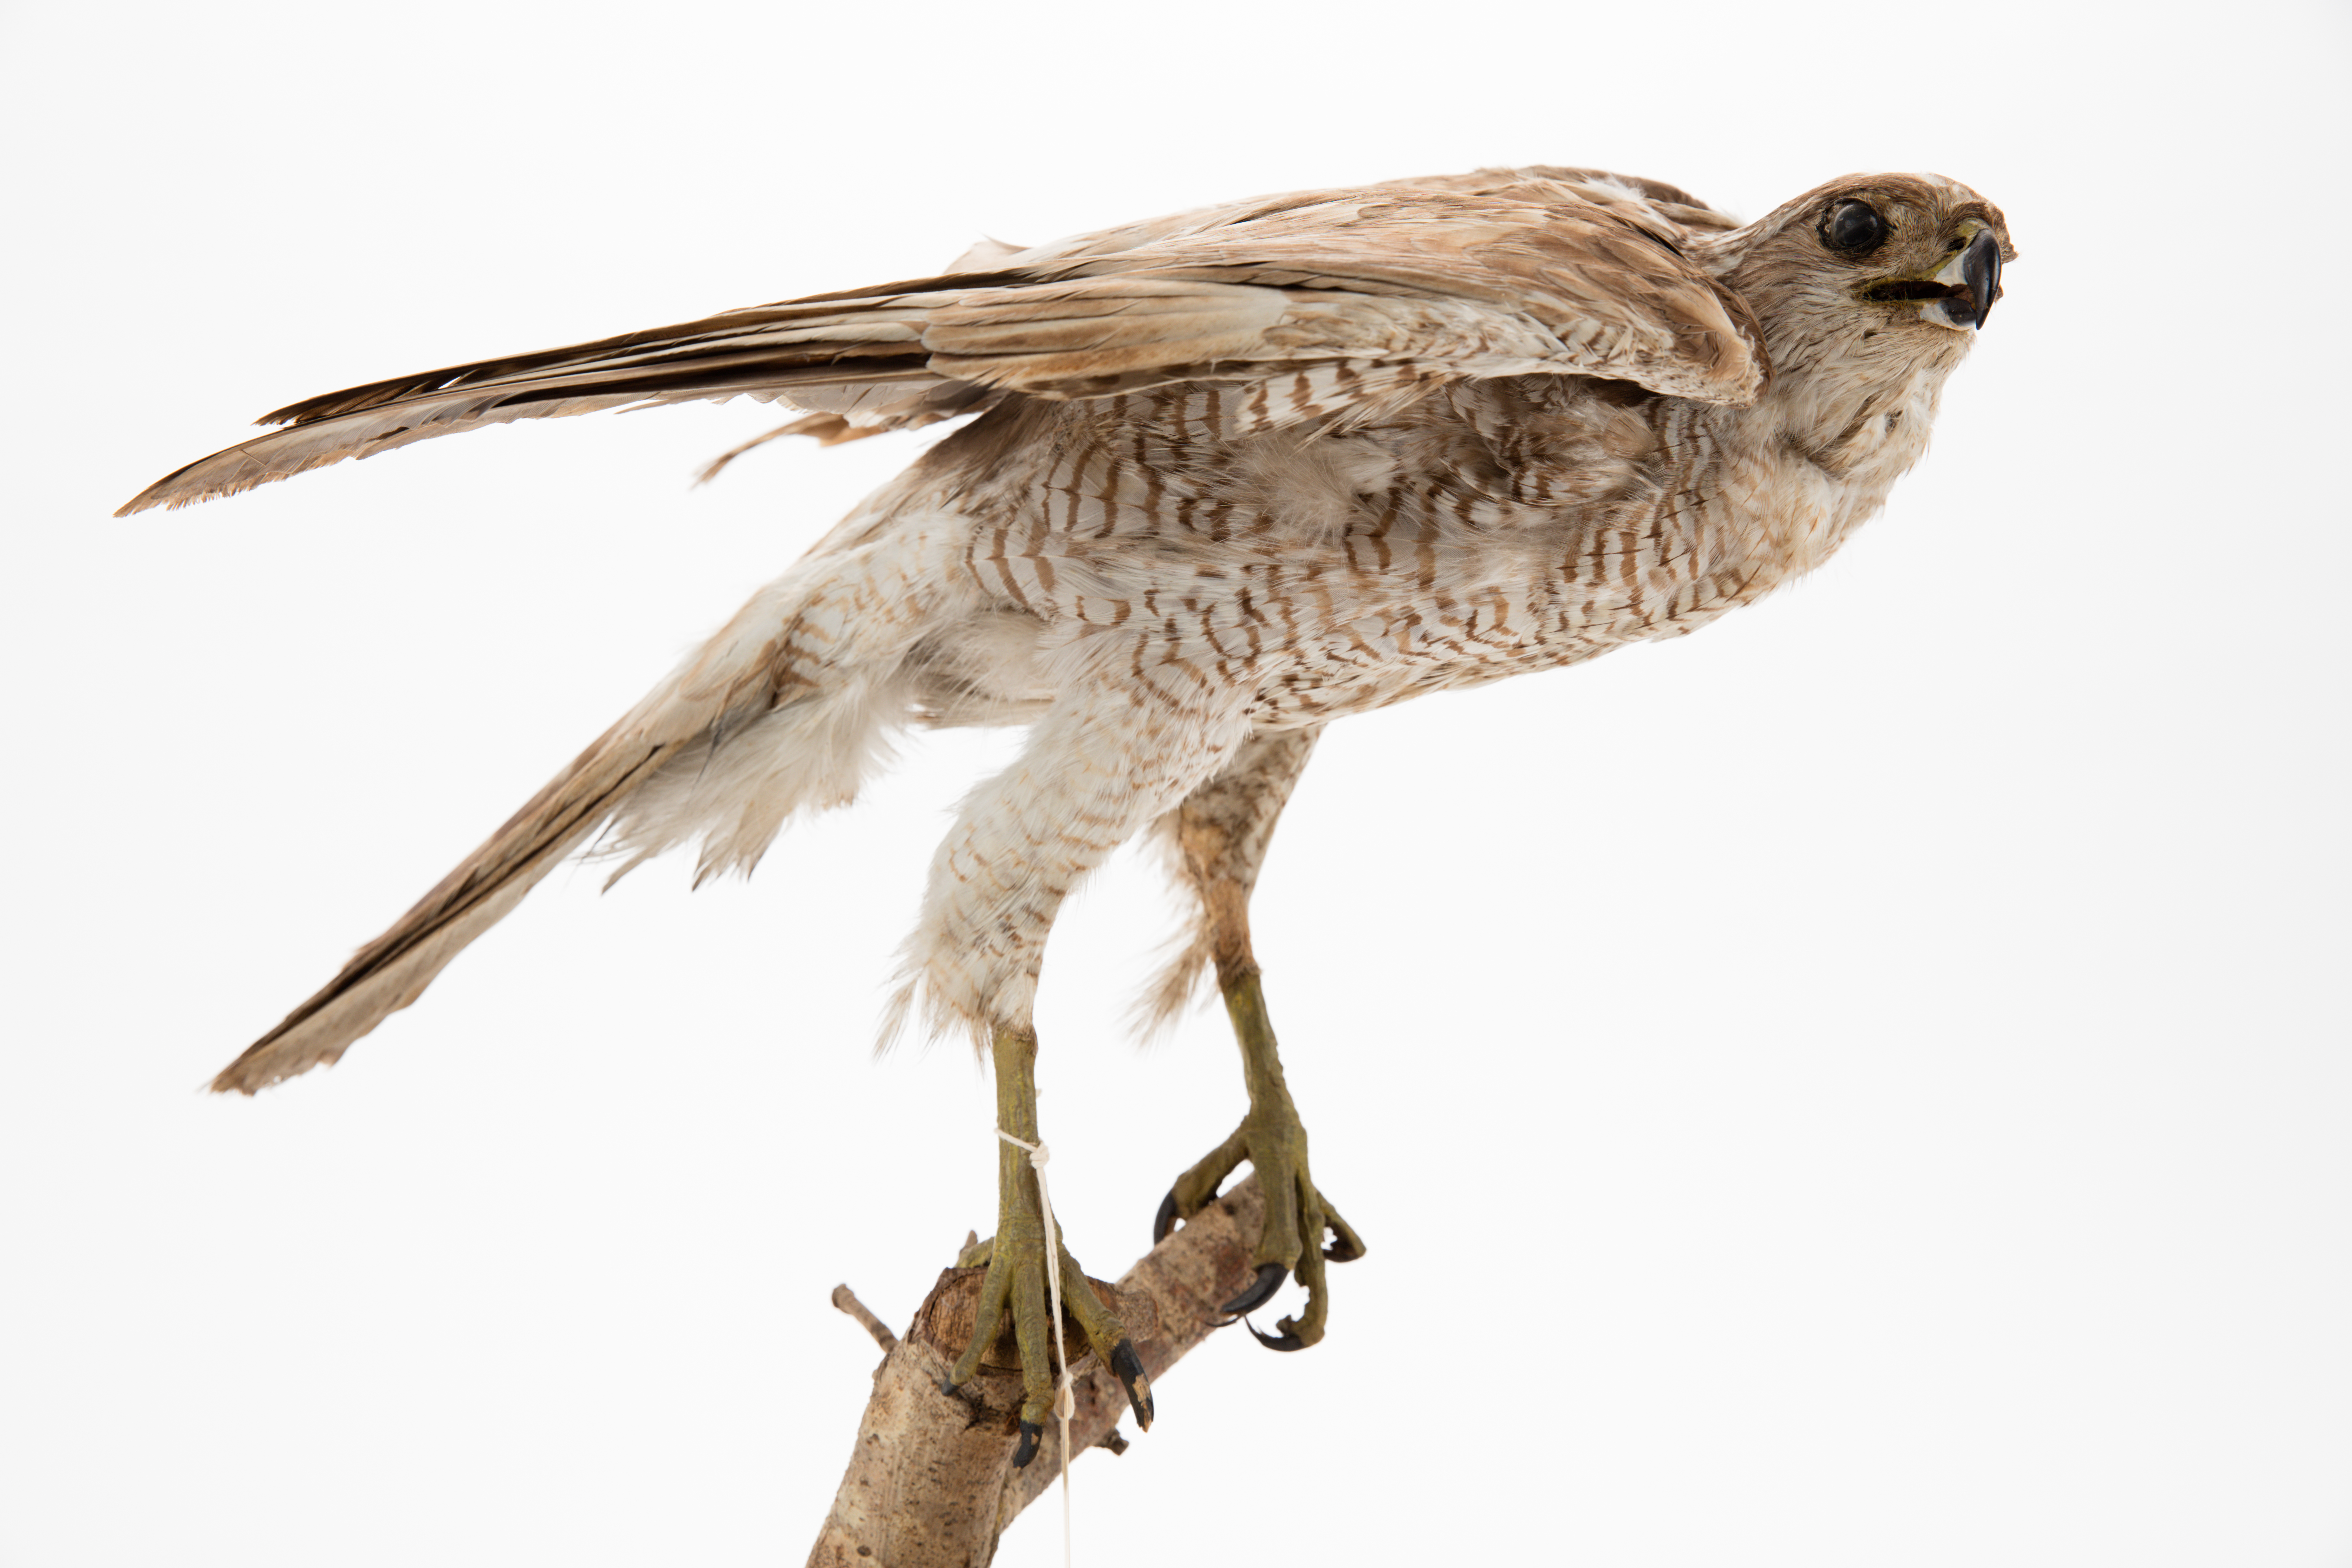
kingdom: Animalia
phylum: Chordata
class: Aves
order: Accipitriformes
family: Accipitridae
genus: Accipiter
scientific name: Accipiter gentilis
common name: Northern goshawk
